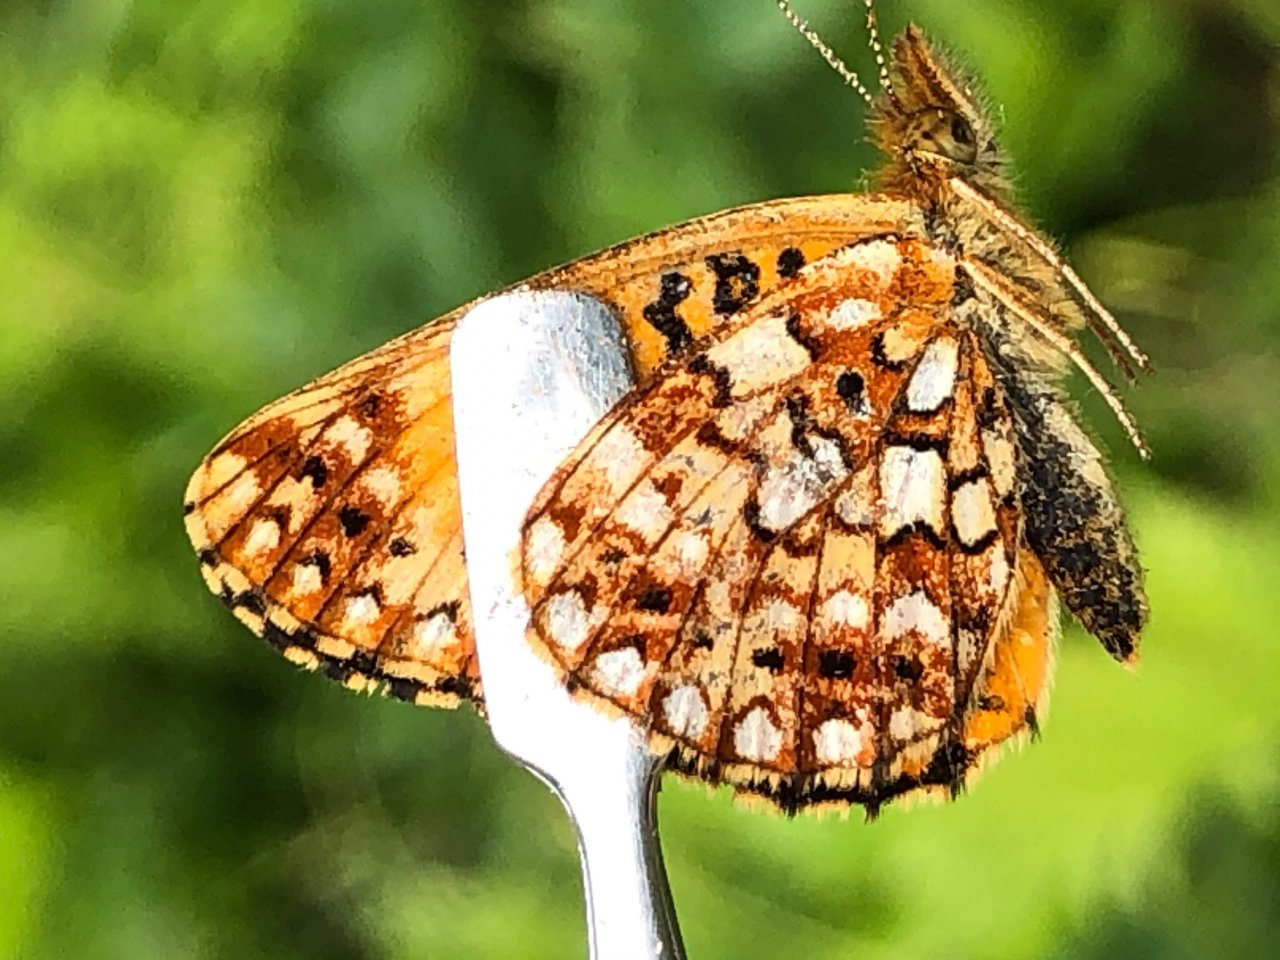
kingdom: Animalia
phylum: Arthropoda
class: Insecta
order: Lepidoptera
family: Nymphalidae
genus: Boloria
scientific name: Boloria selene
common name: Silver-bordered Fritillary
